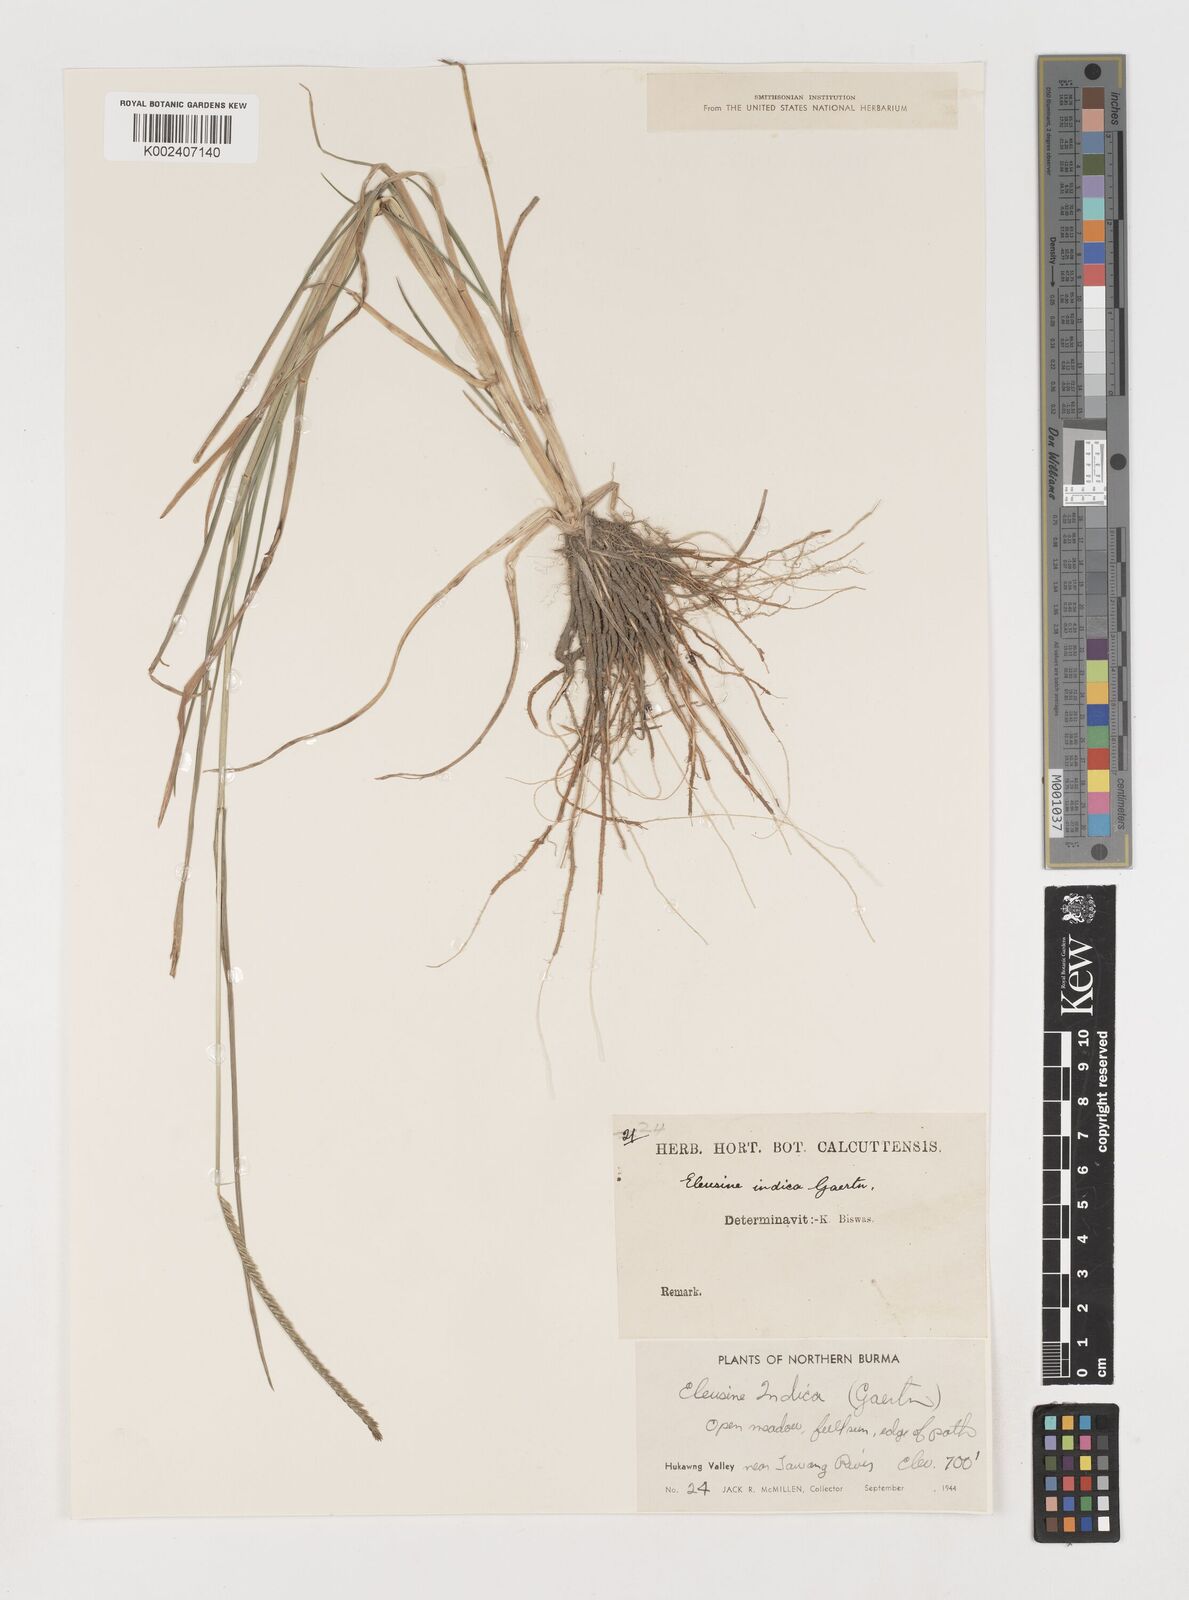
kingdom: Plantae
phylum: Tracheophyta
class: Liliopsida
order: Poales
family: Poaceae
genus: Eleusine
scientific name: Eleusine indica
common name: Yard-grass
